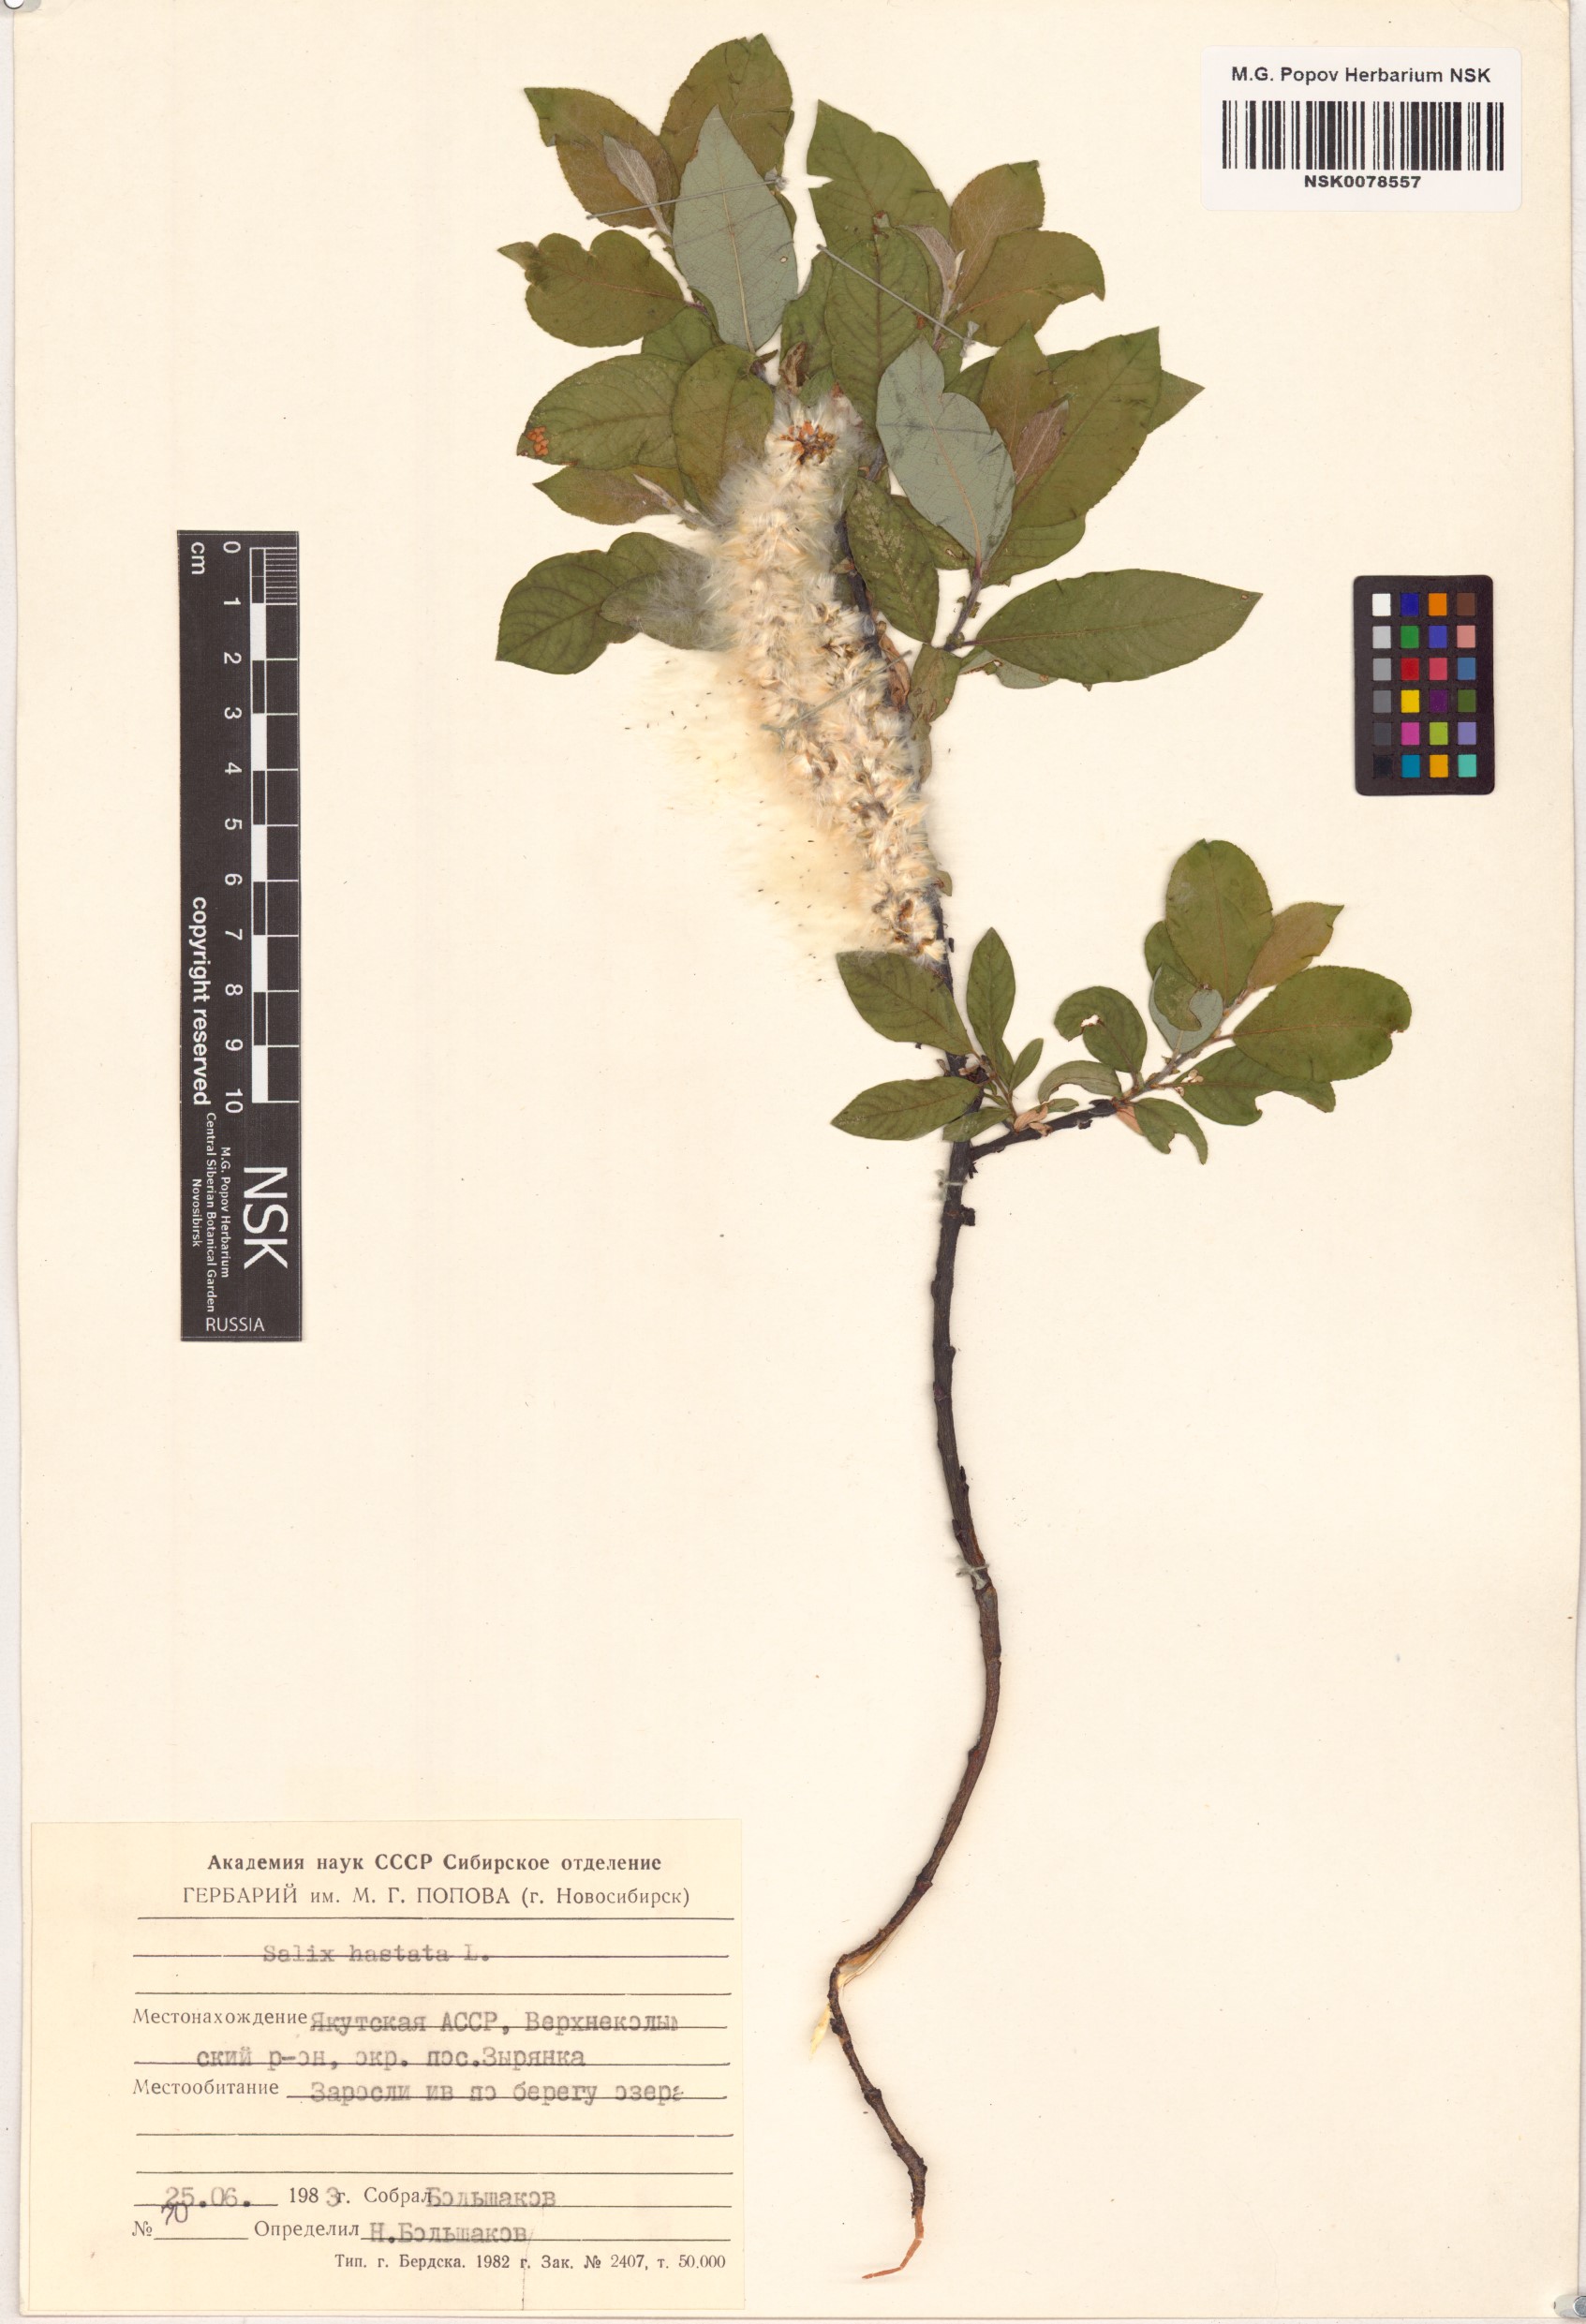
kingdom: Plantae
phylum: Tracheophyta
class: Magnoliopsida
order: Malpighiales
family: Salicaceae
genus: Salix
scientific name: Salix hastata
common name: Halberd willow
